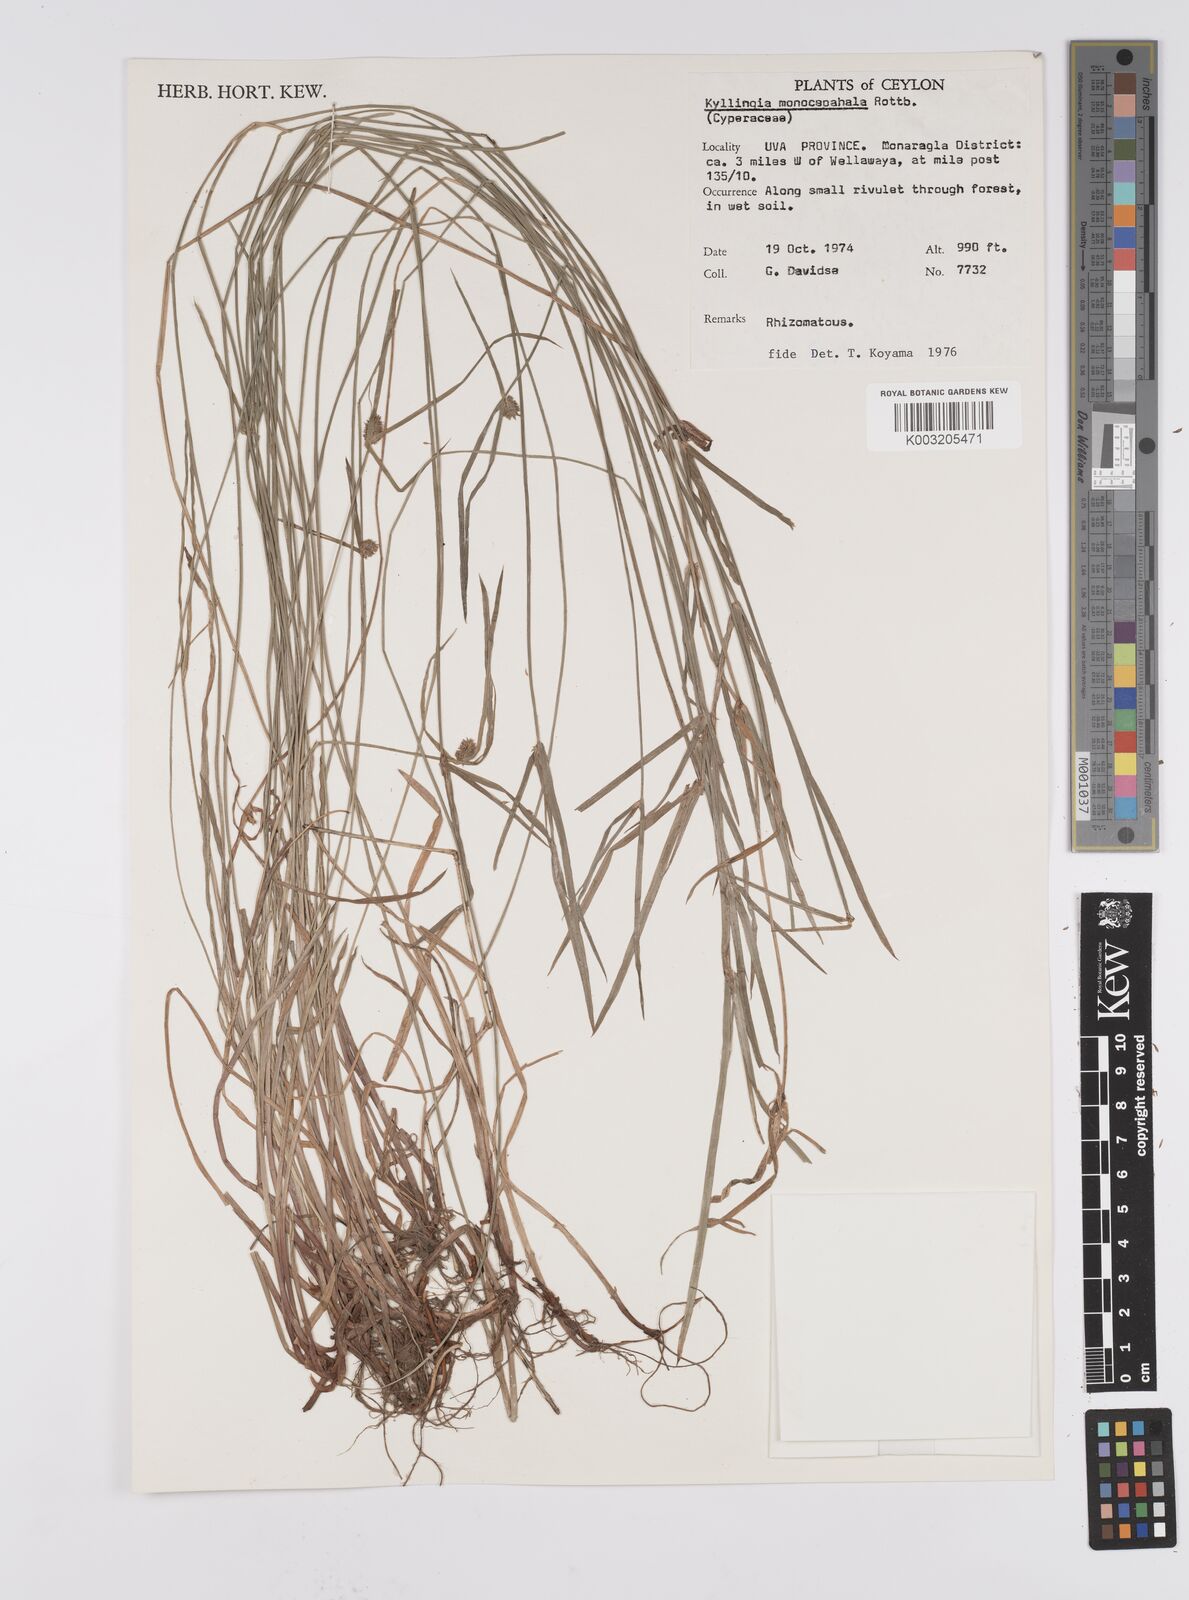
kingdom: Plantae
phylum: Tracheophyta
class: Liliopsida
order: Poales
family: Cyperaceae
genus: Cyperus
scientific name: Cyperus nemoralis
